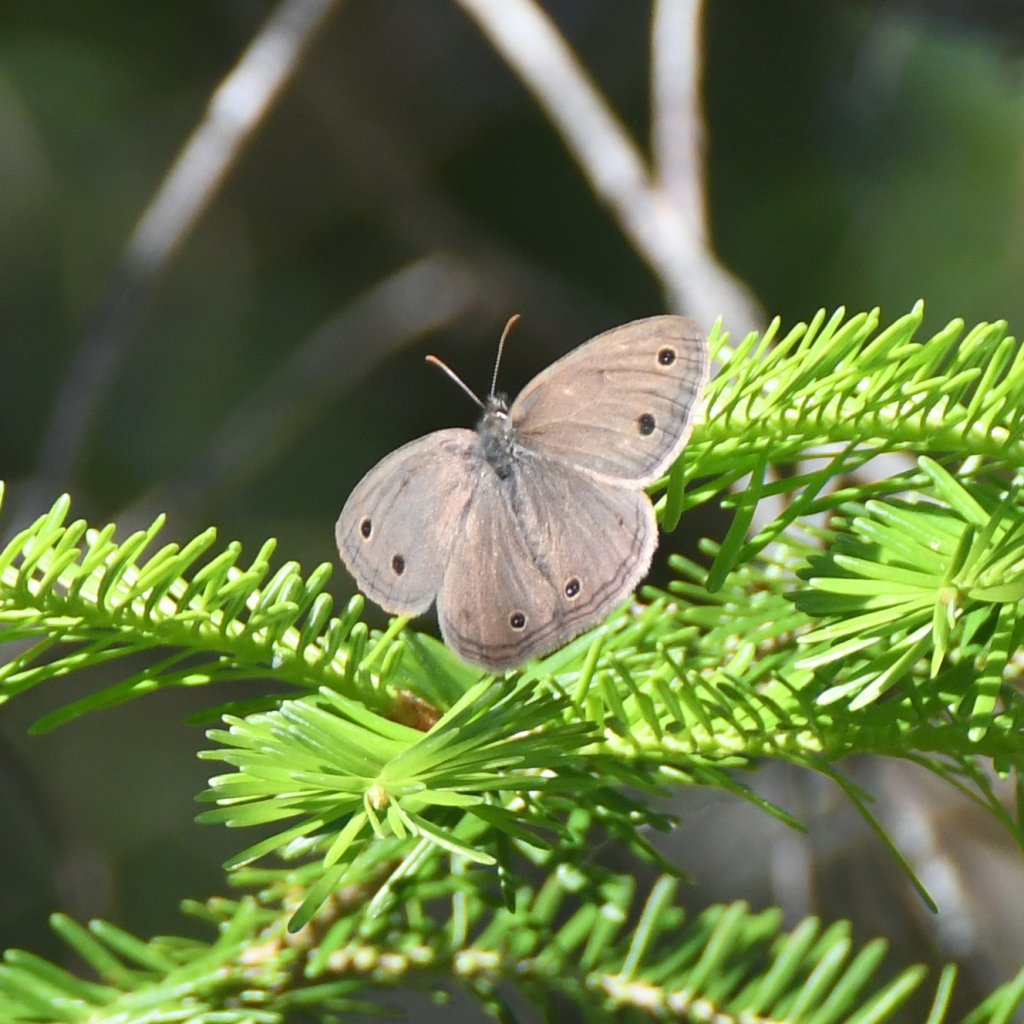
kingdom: Animalia
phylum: Arthropoda
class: Insecta
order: Lepidoptera
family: Nymphalidae
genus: Euptychia
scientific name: Euptychia cymela
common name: Little Wood Satyr
